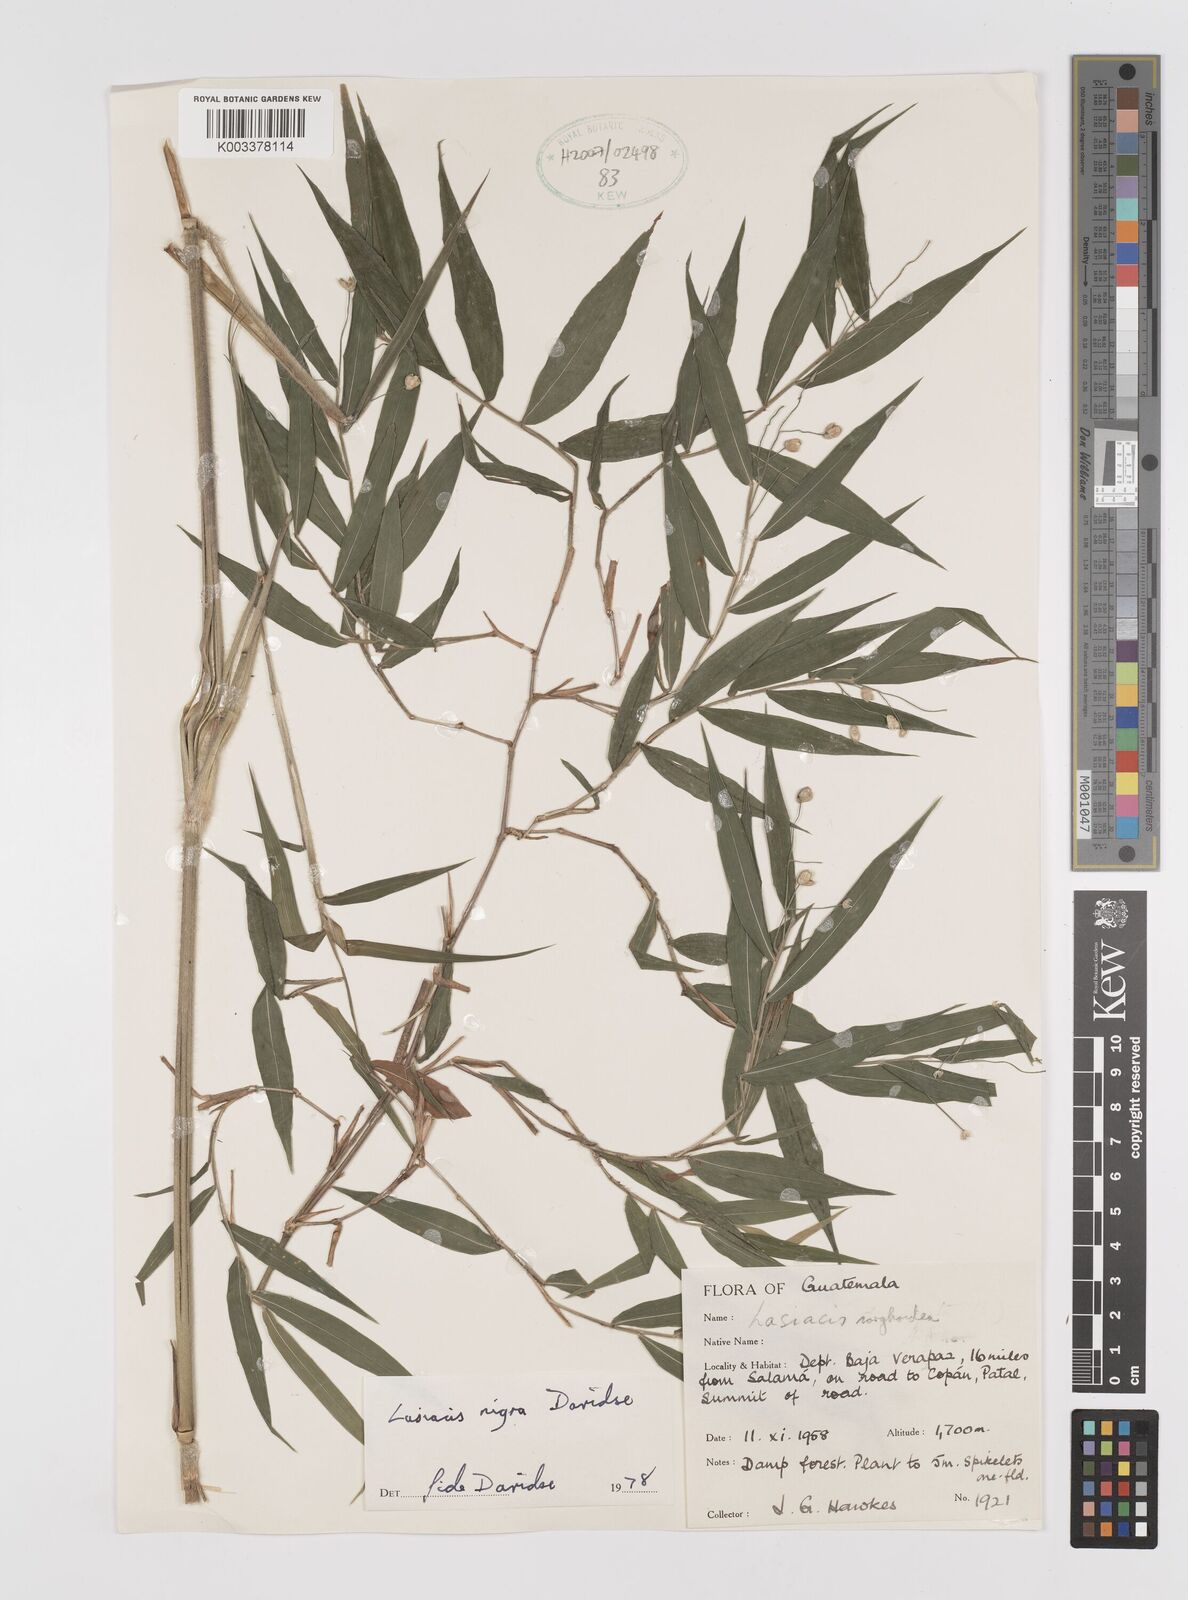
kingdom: Plantae
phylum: Tracheophyta
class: Liliopsida
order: Poales
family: Poaceae
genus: Lasiacis
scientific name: Lasiacis nigra
